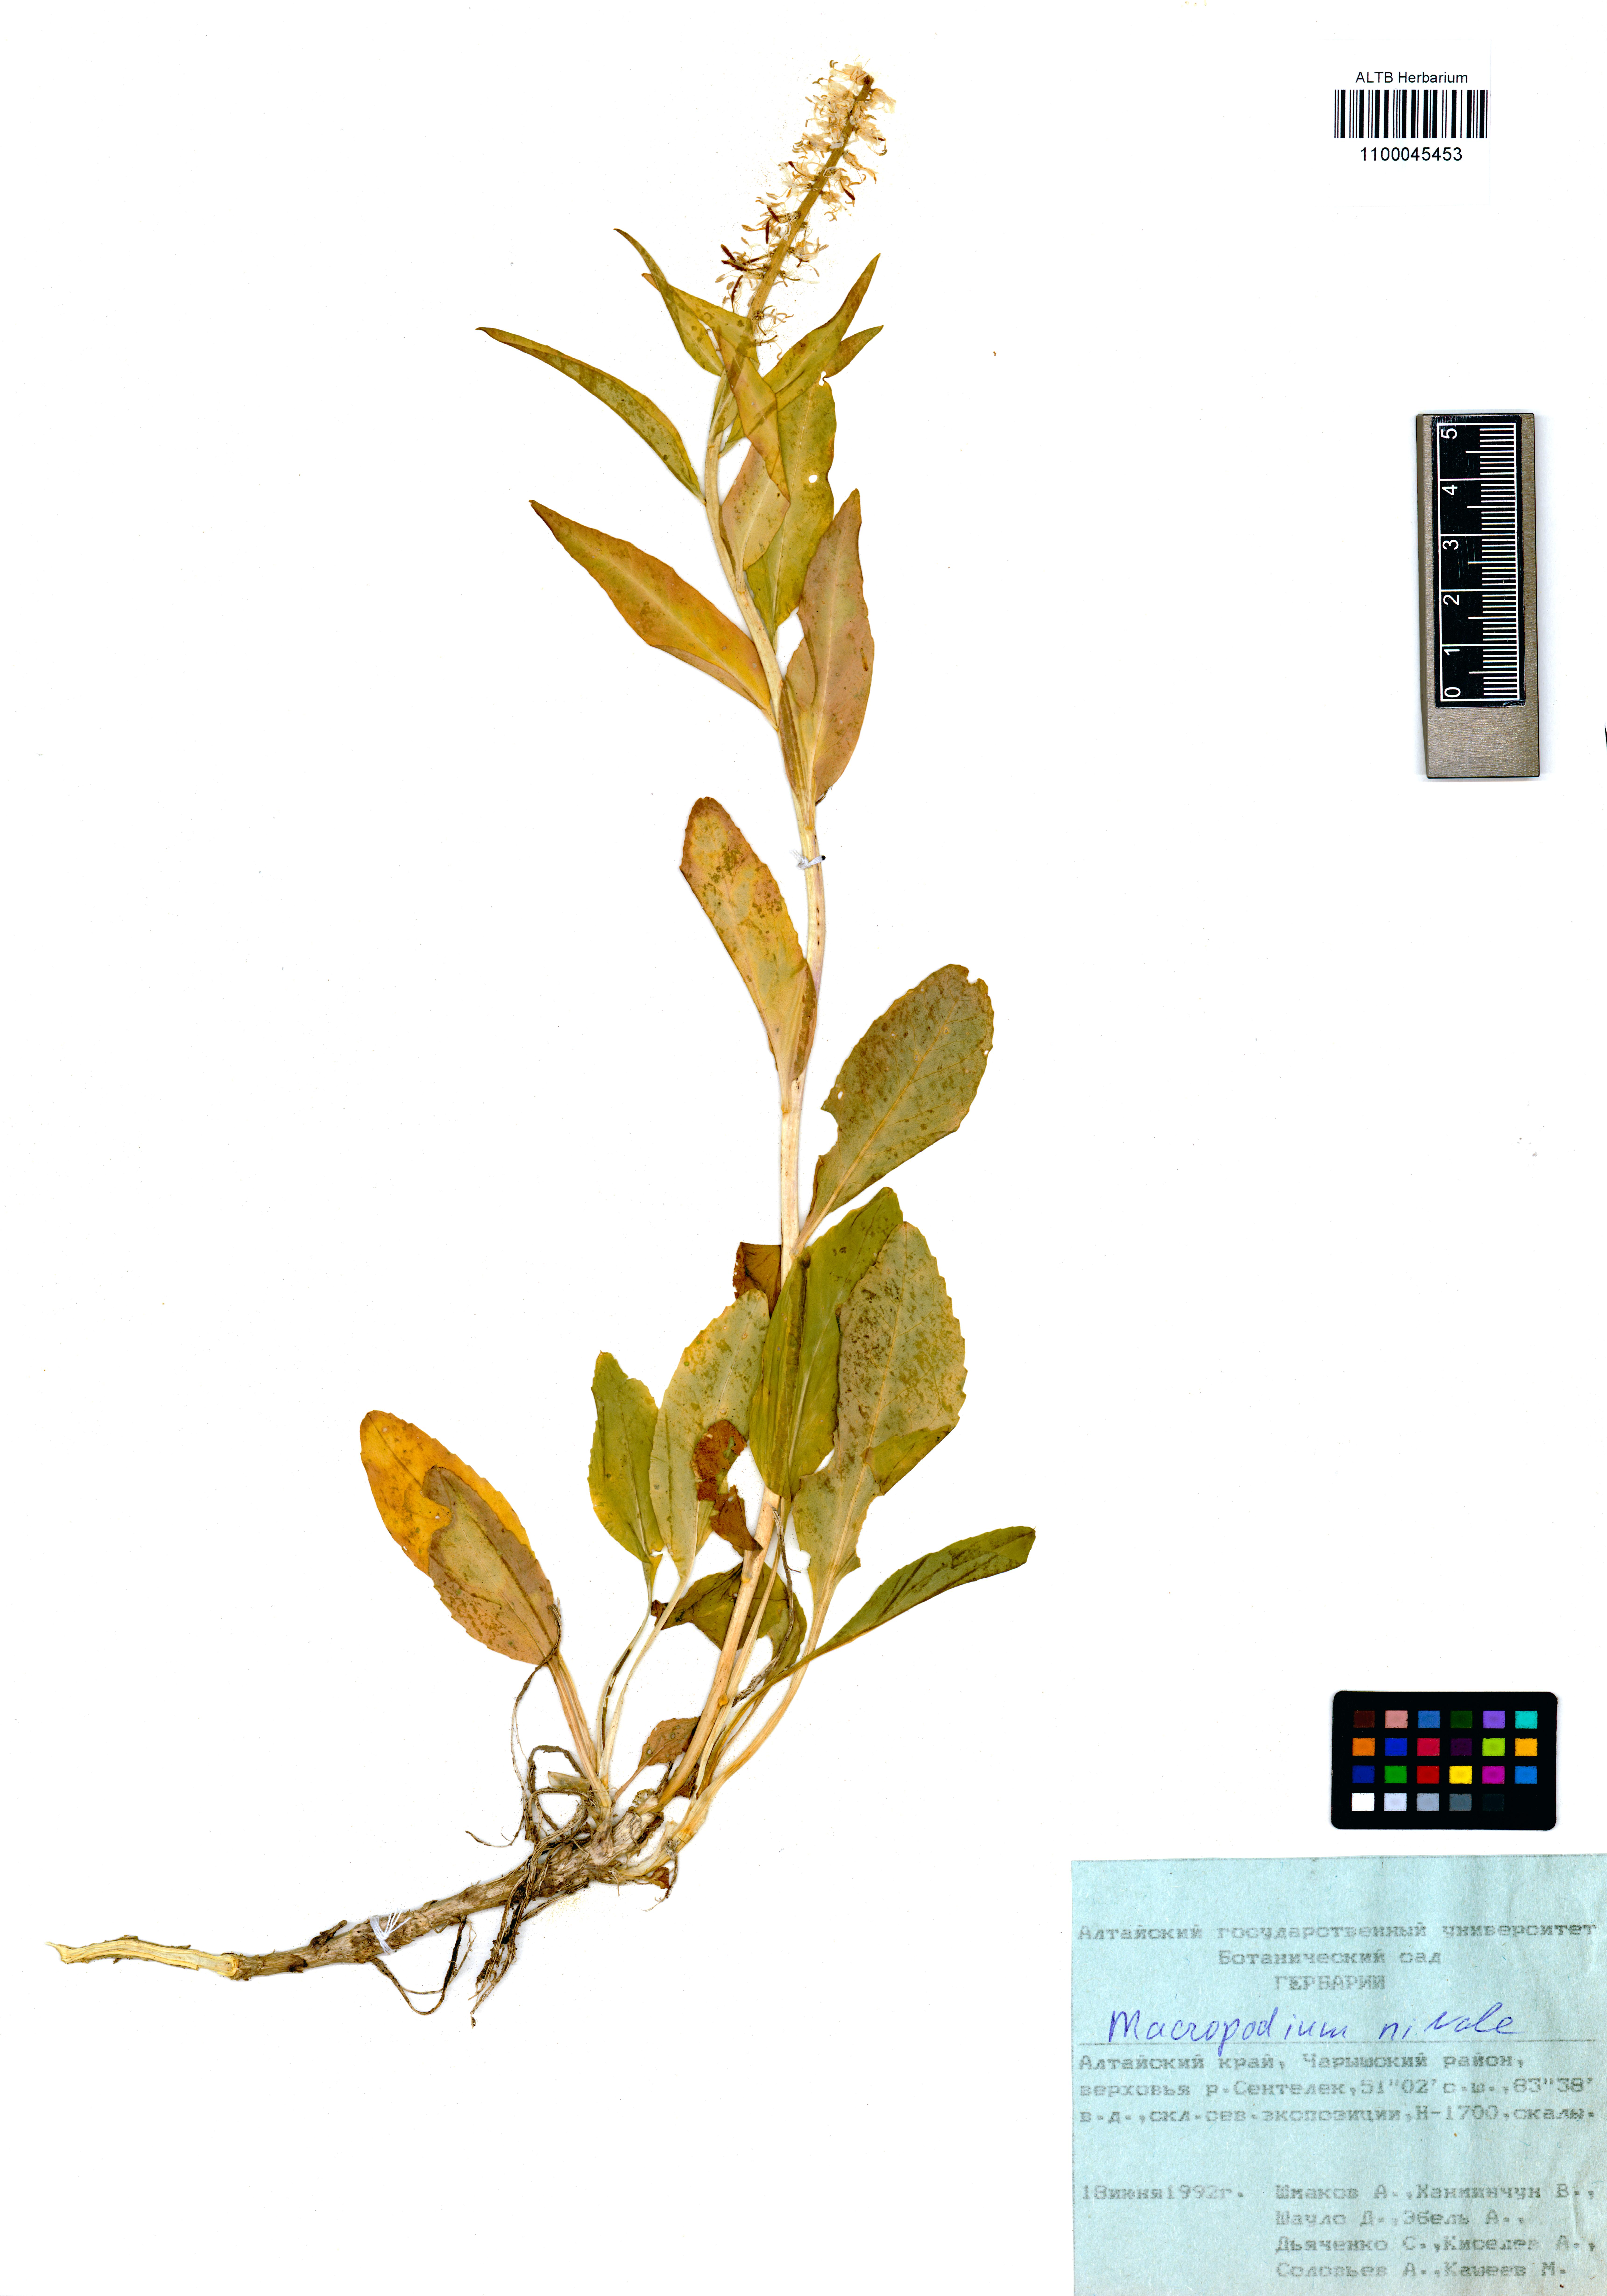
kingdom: Plantae
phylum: Tracheophyta
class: Magnoliopsida
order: Brassicales
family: Brassicaceae
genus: Macropodium
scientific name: Macropodium nivale
